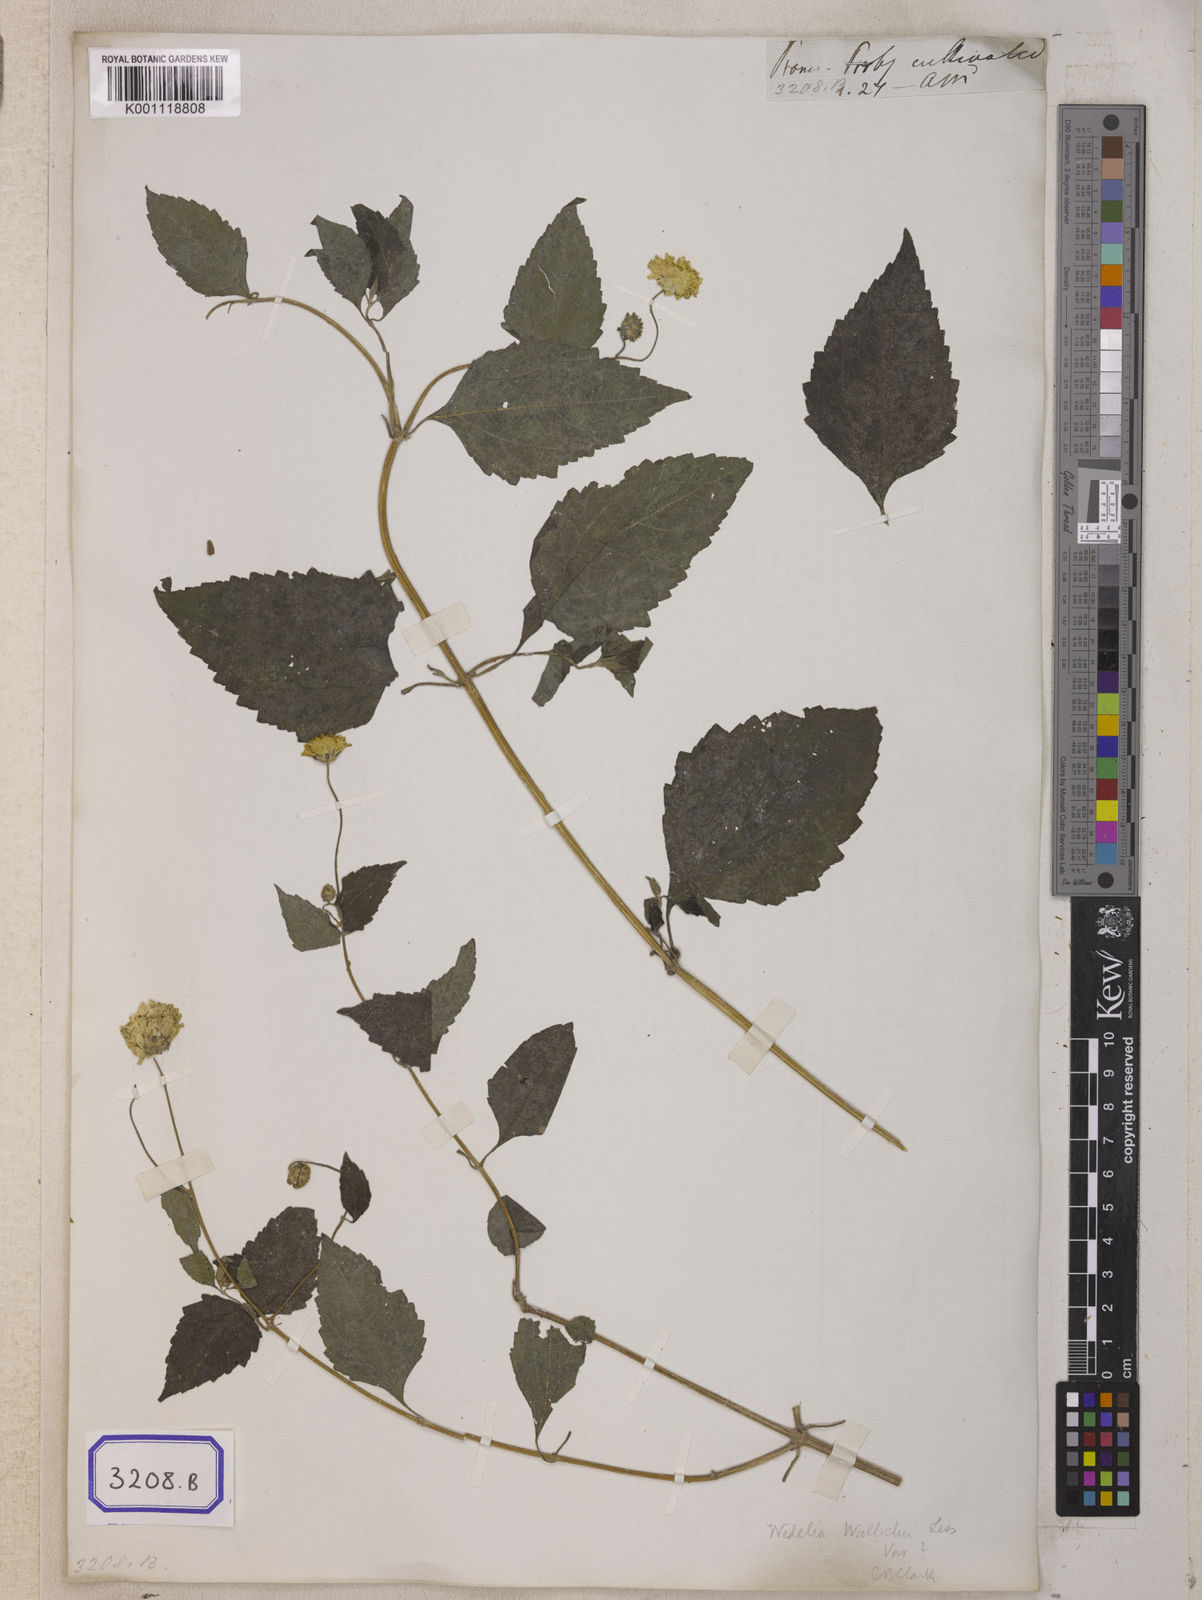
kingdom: Plantae
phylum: Tracheophyta
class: Magnoliopsida
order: Asterales
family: Asteraceae
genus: Indocypraea
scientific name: Indocypraea montana
